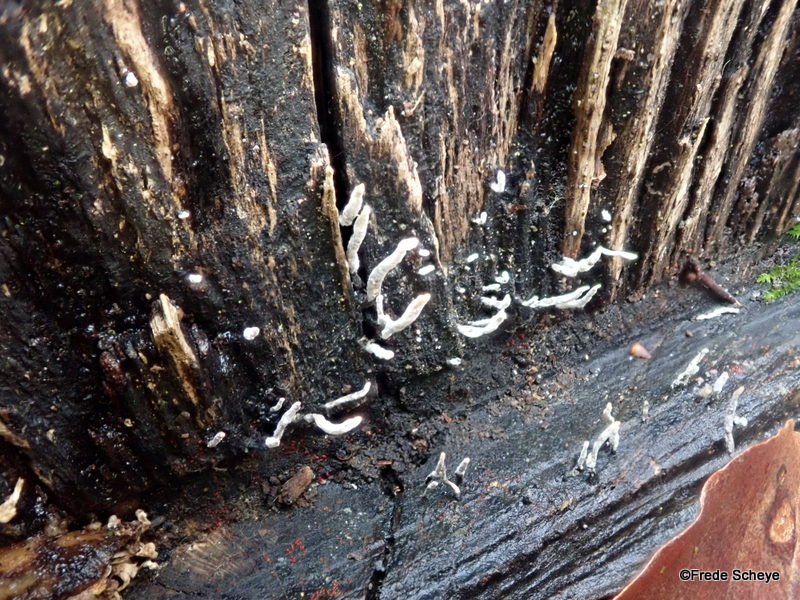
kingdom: Fungi
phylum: Ascomycota
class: Sordariomycetes
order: Xylariales
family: Xylariaceae
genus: Xylaria
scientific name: Xylaria hypoxylon
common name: grenet stødsvamp
